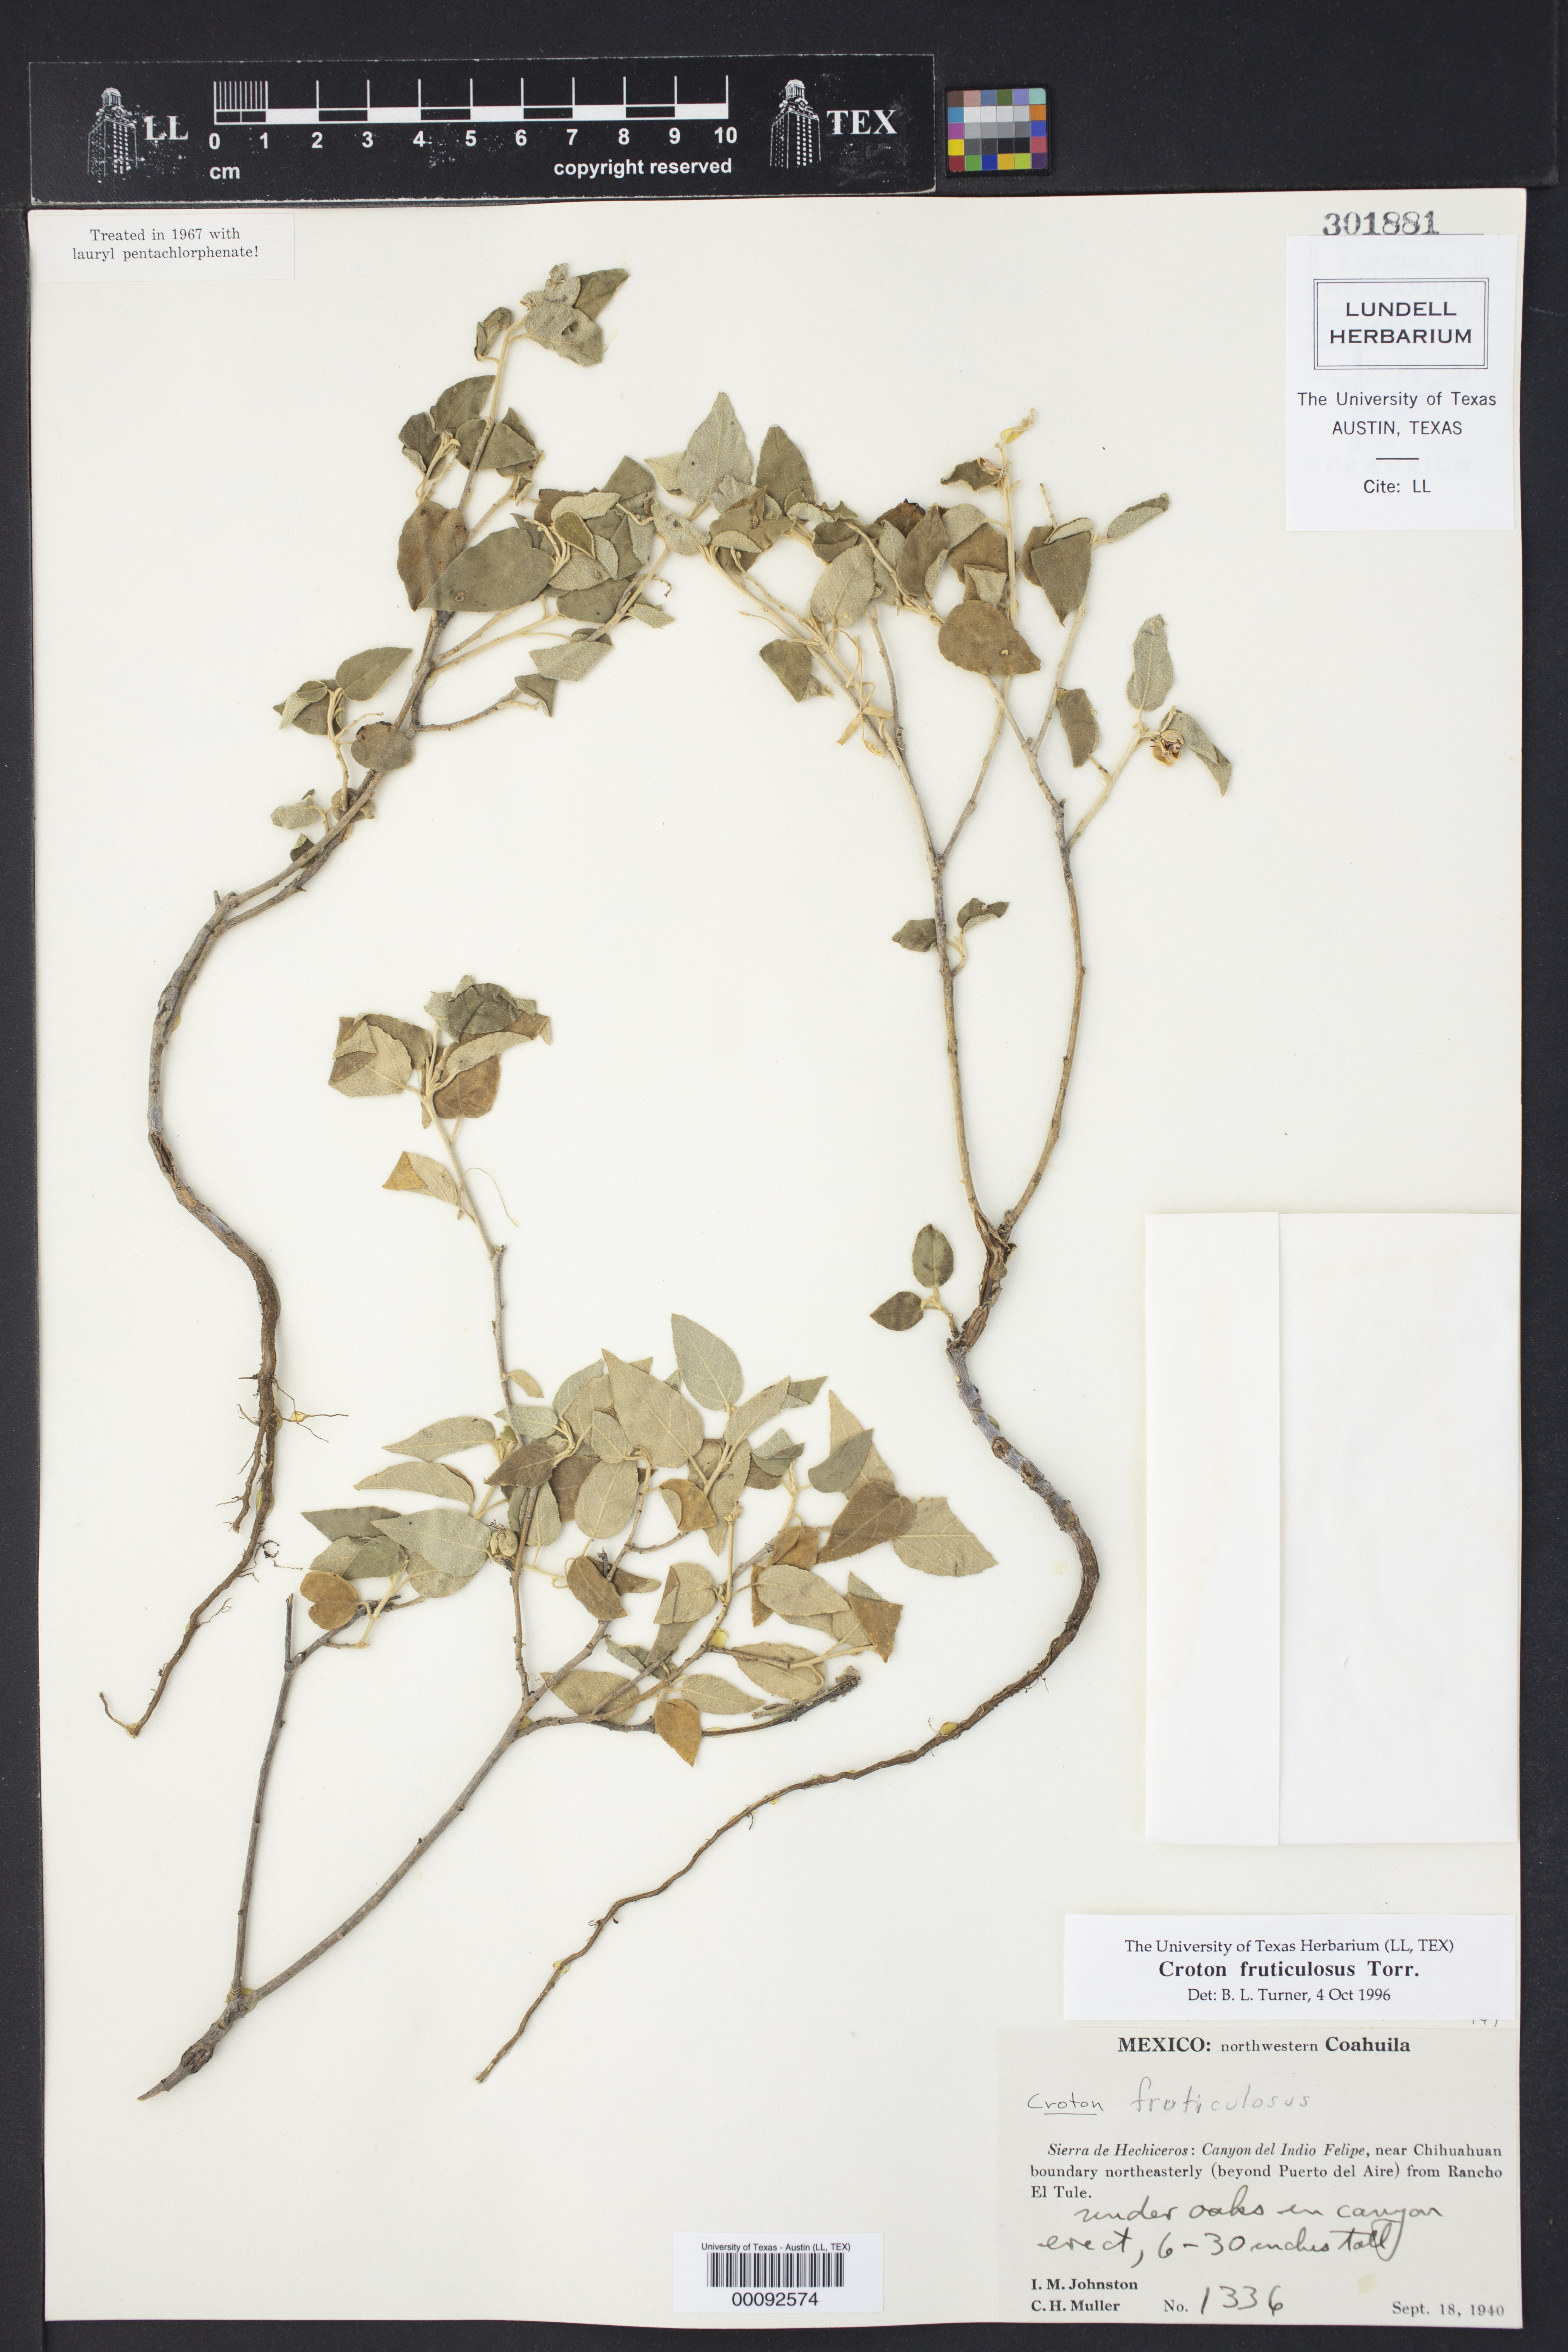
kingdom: Plantae
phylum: Tracheophyta
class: Magnoliopsida
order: Malpighiales
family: Euphorbiaceae
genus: Croton
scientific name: Croton fruticulosus
